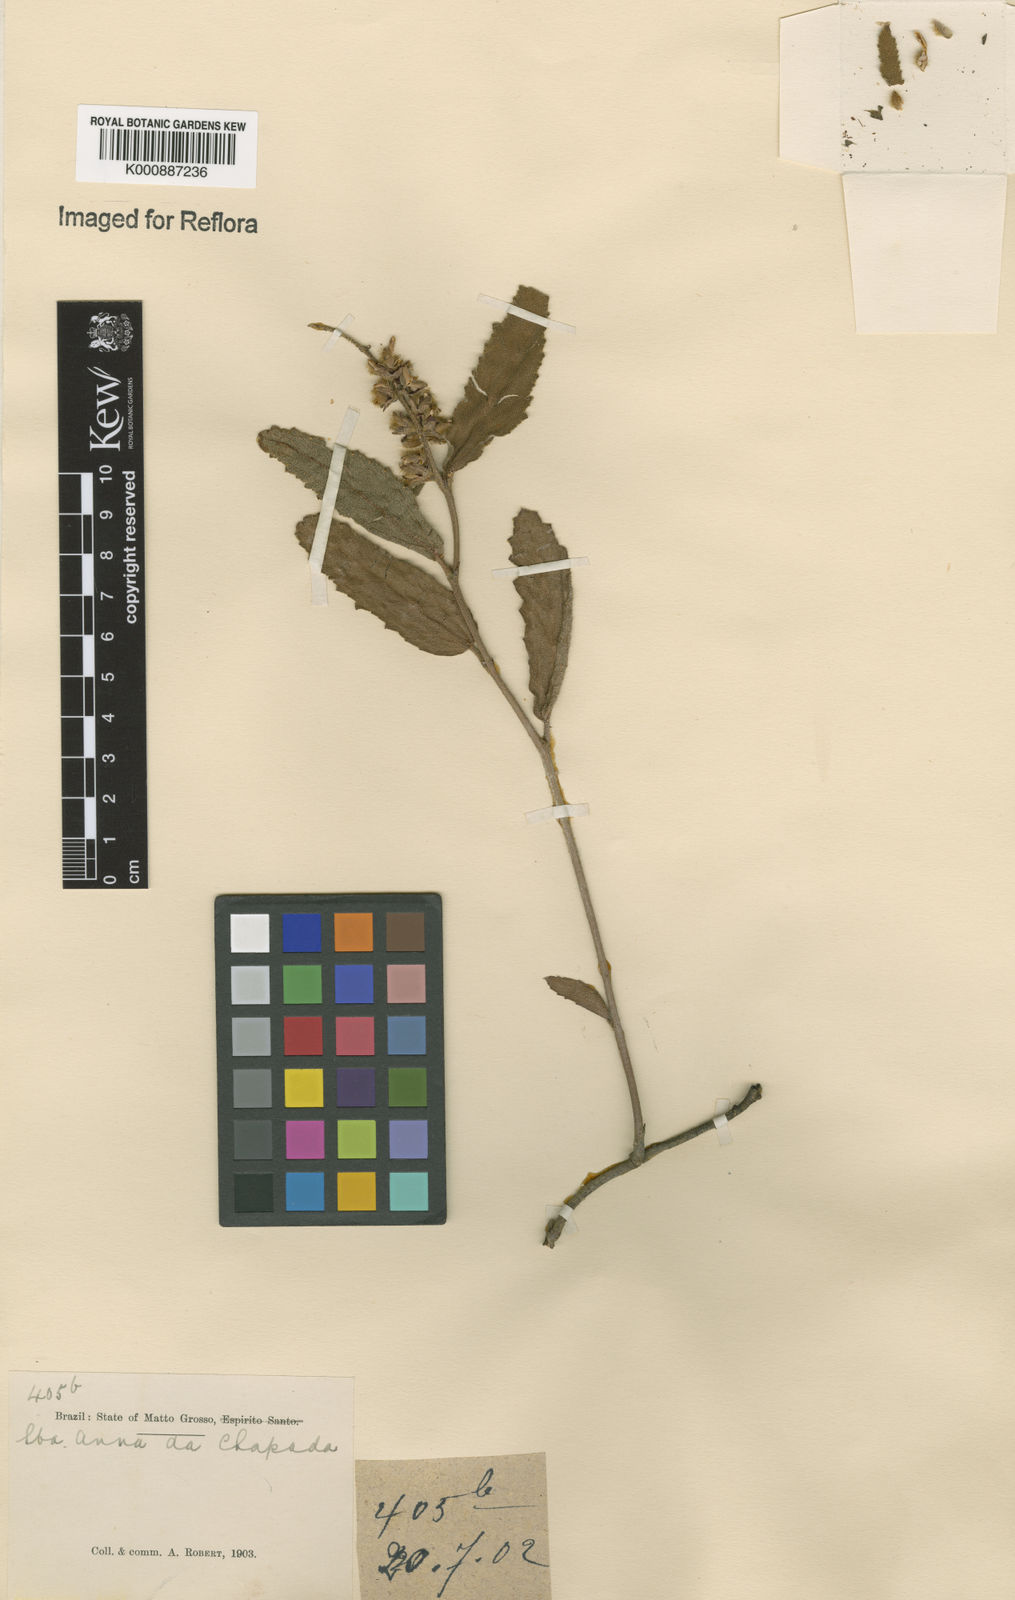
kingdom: Plantae
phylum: Tracheophyta
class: Magnoliopsida
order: Malpighiales
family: Euphorbiaceae
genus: Croton
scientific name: Croton antisyphiliticus
